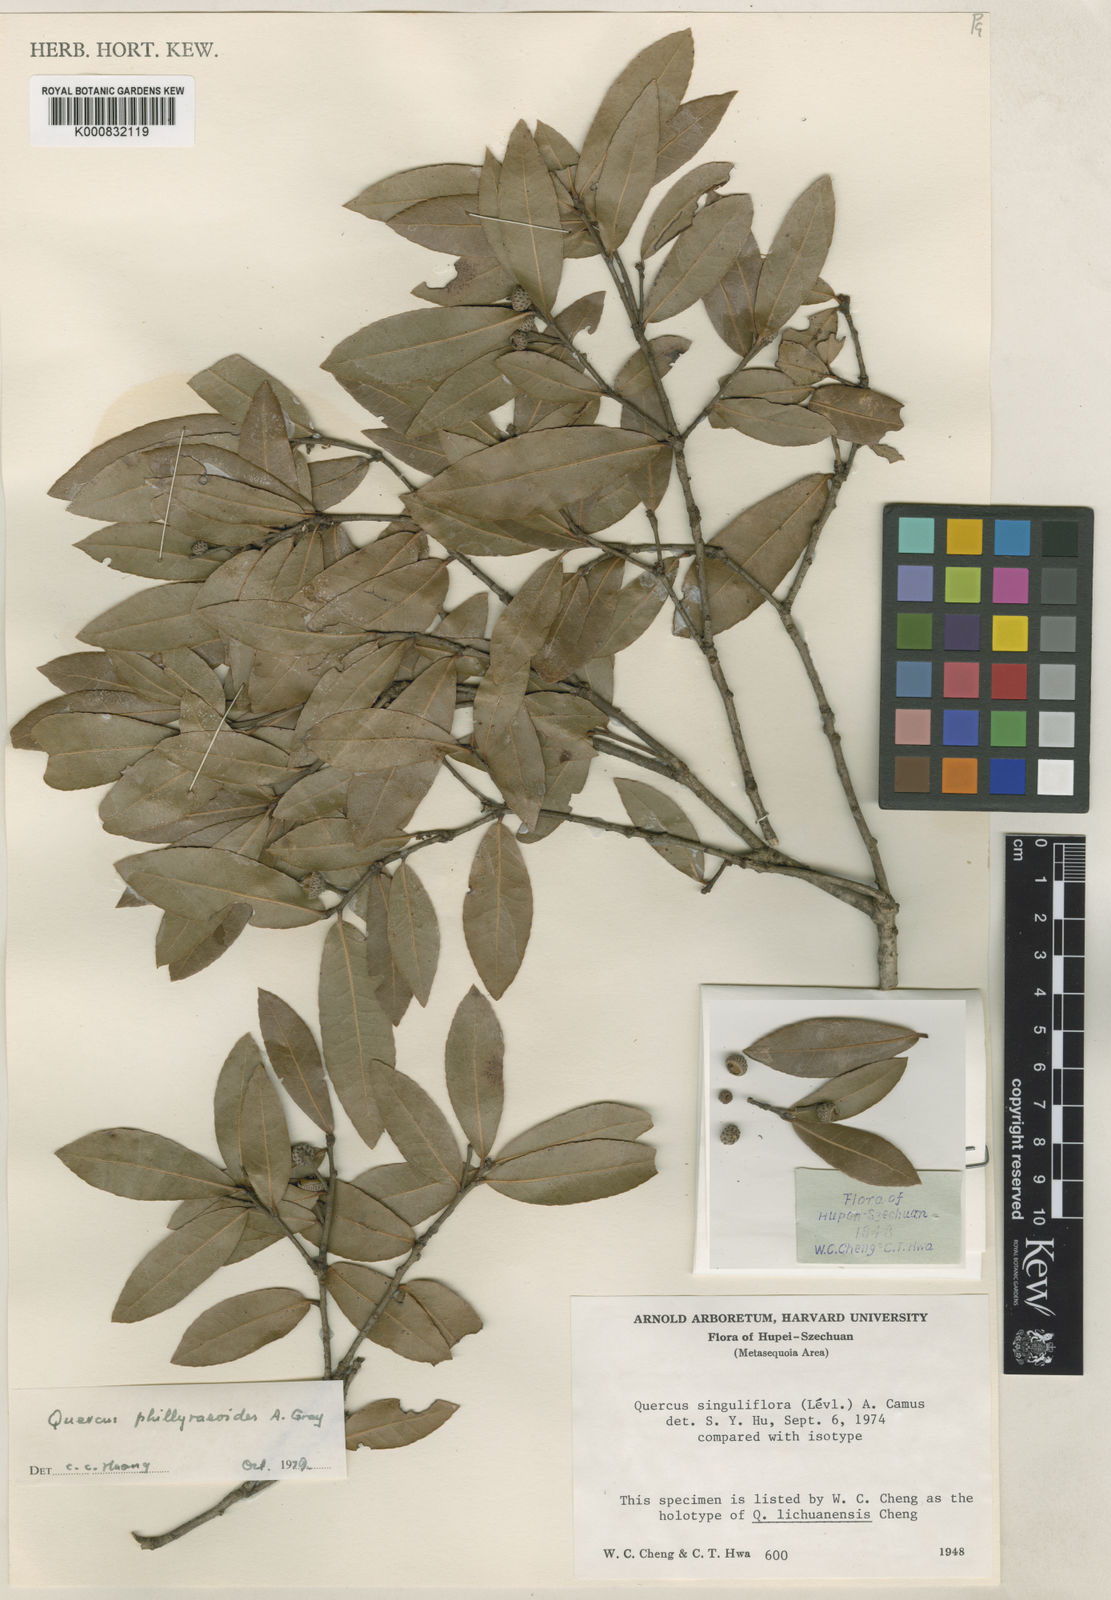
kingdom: Plantae
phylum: Tracheophyta
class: Magnoliopsida
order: Fagales
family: Fagaceae
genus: Quercus
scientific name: Quercus phillyreoides
